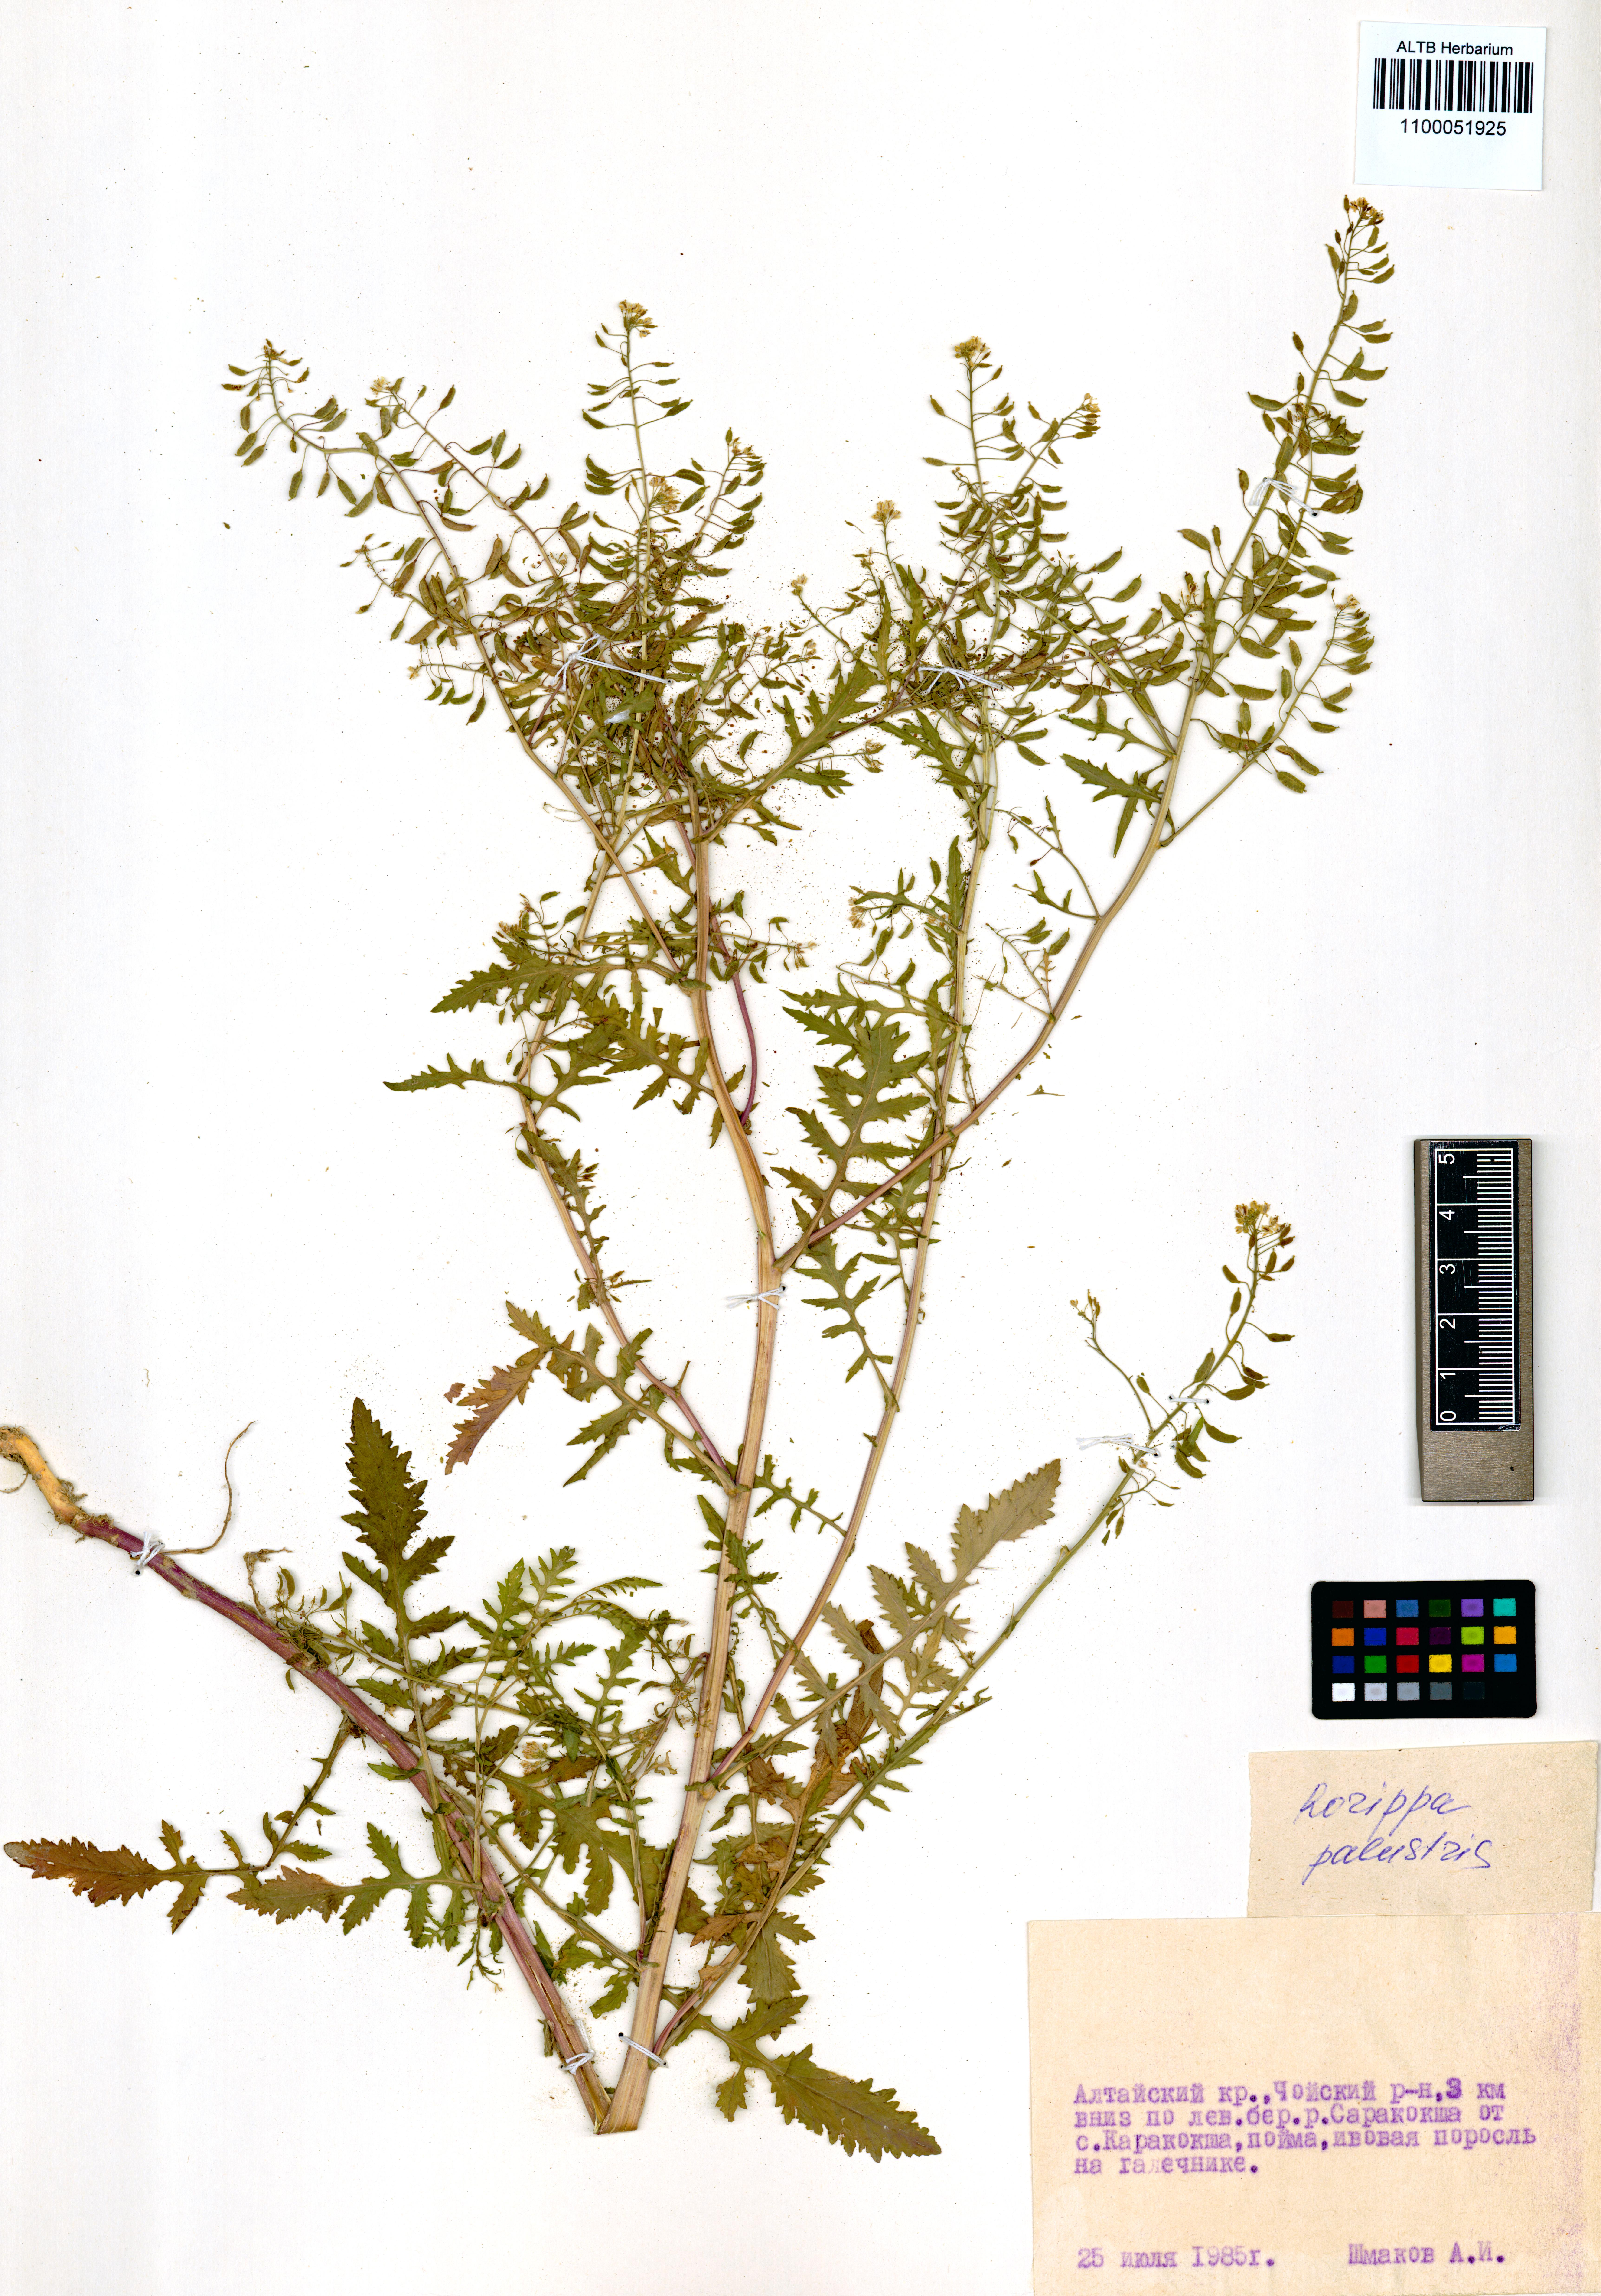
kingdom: Plantae
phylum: Tracheophyta
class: Magnoliopsida
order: Brassicales
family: Brassicaceae
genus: Rorippa
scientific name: Rorippa palustris
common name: Marsh yellow-cress
